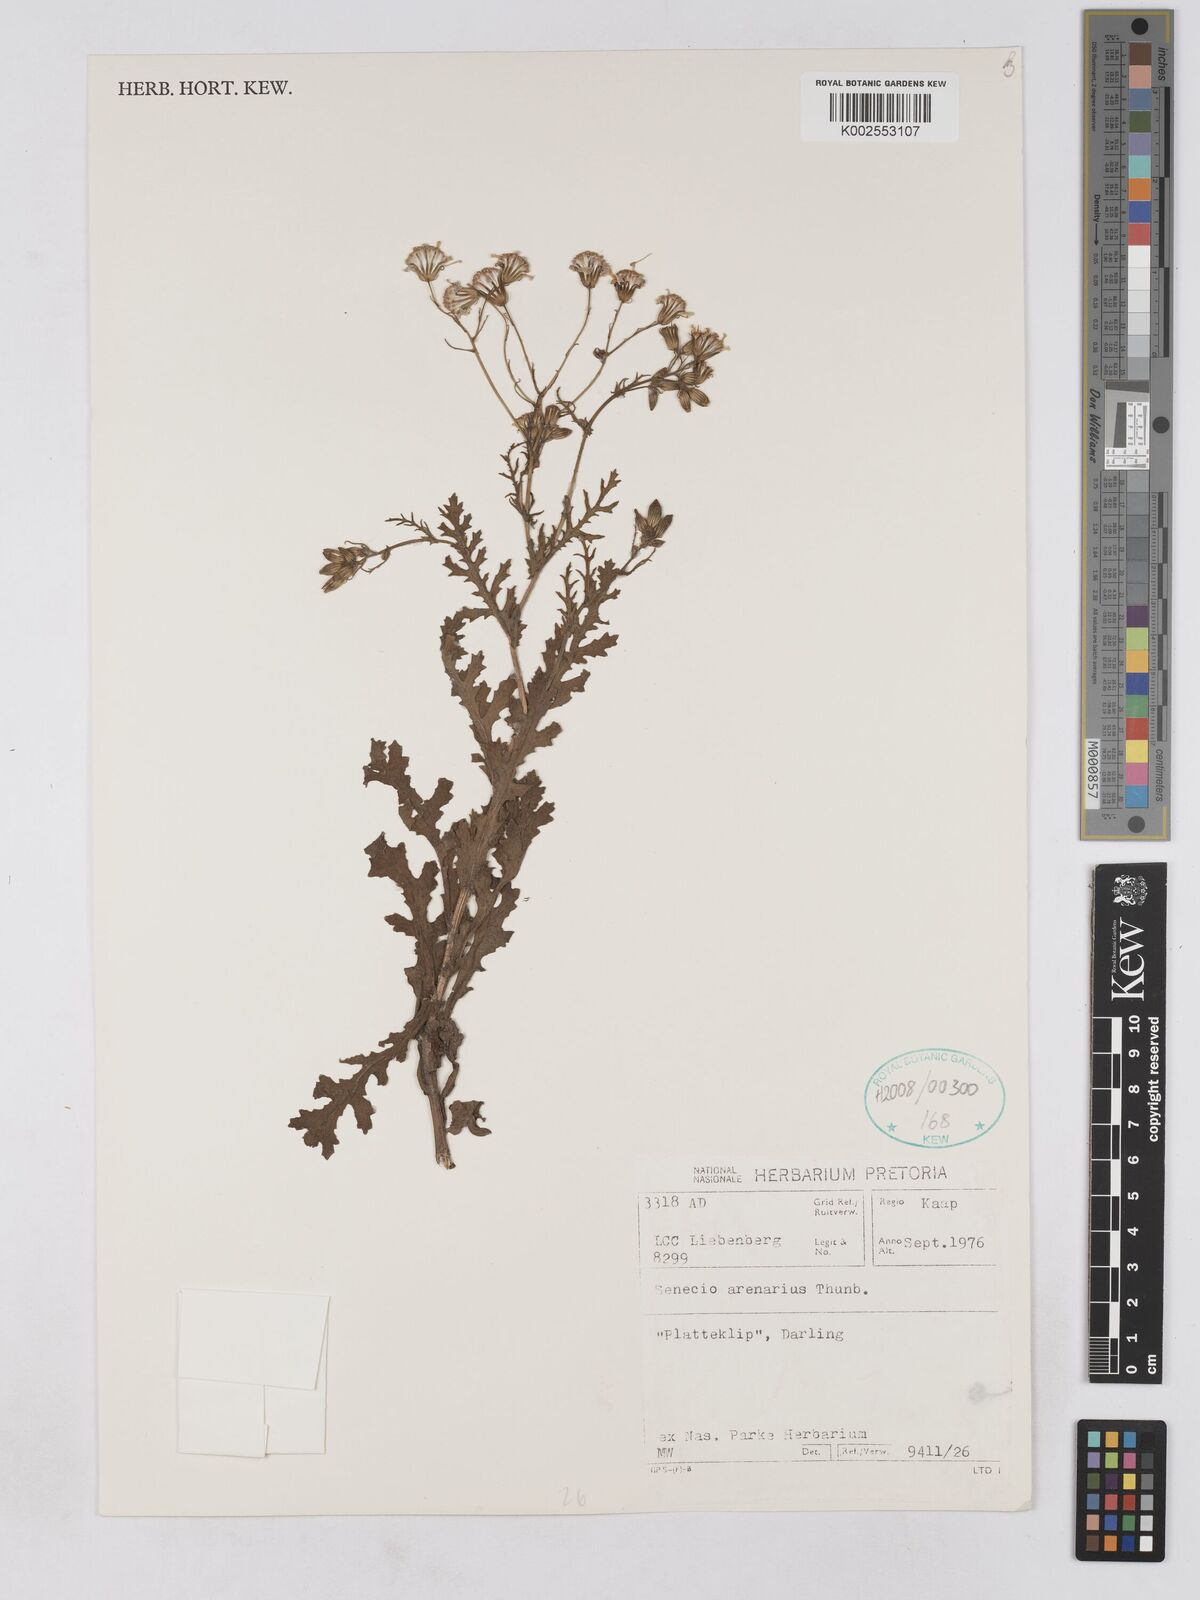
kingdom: Plantae
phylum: Tracheophyta
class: Magnoliopsida
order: Asterales
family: Asteraceae
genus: Senecio
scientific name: Senecio arenarius
